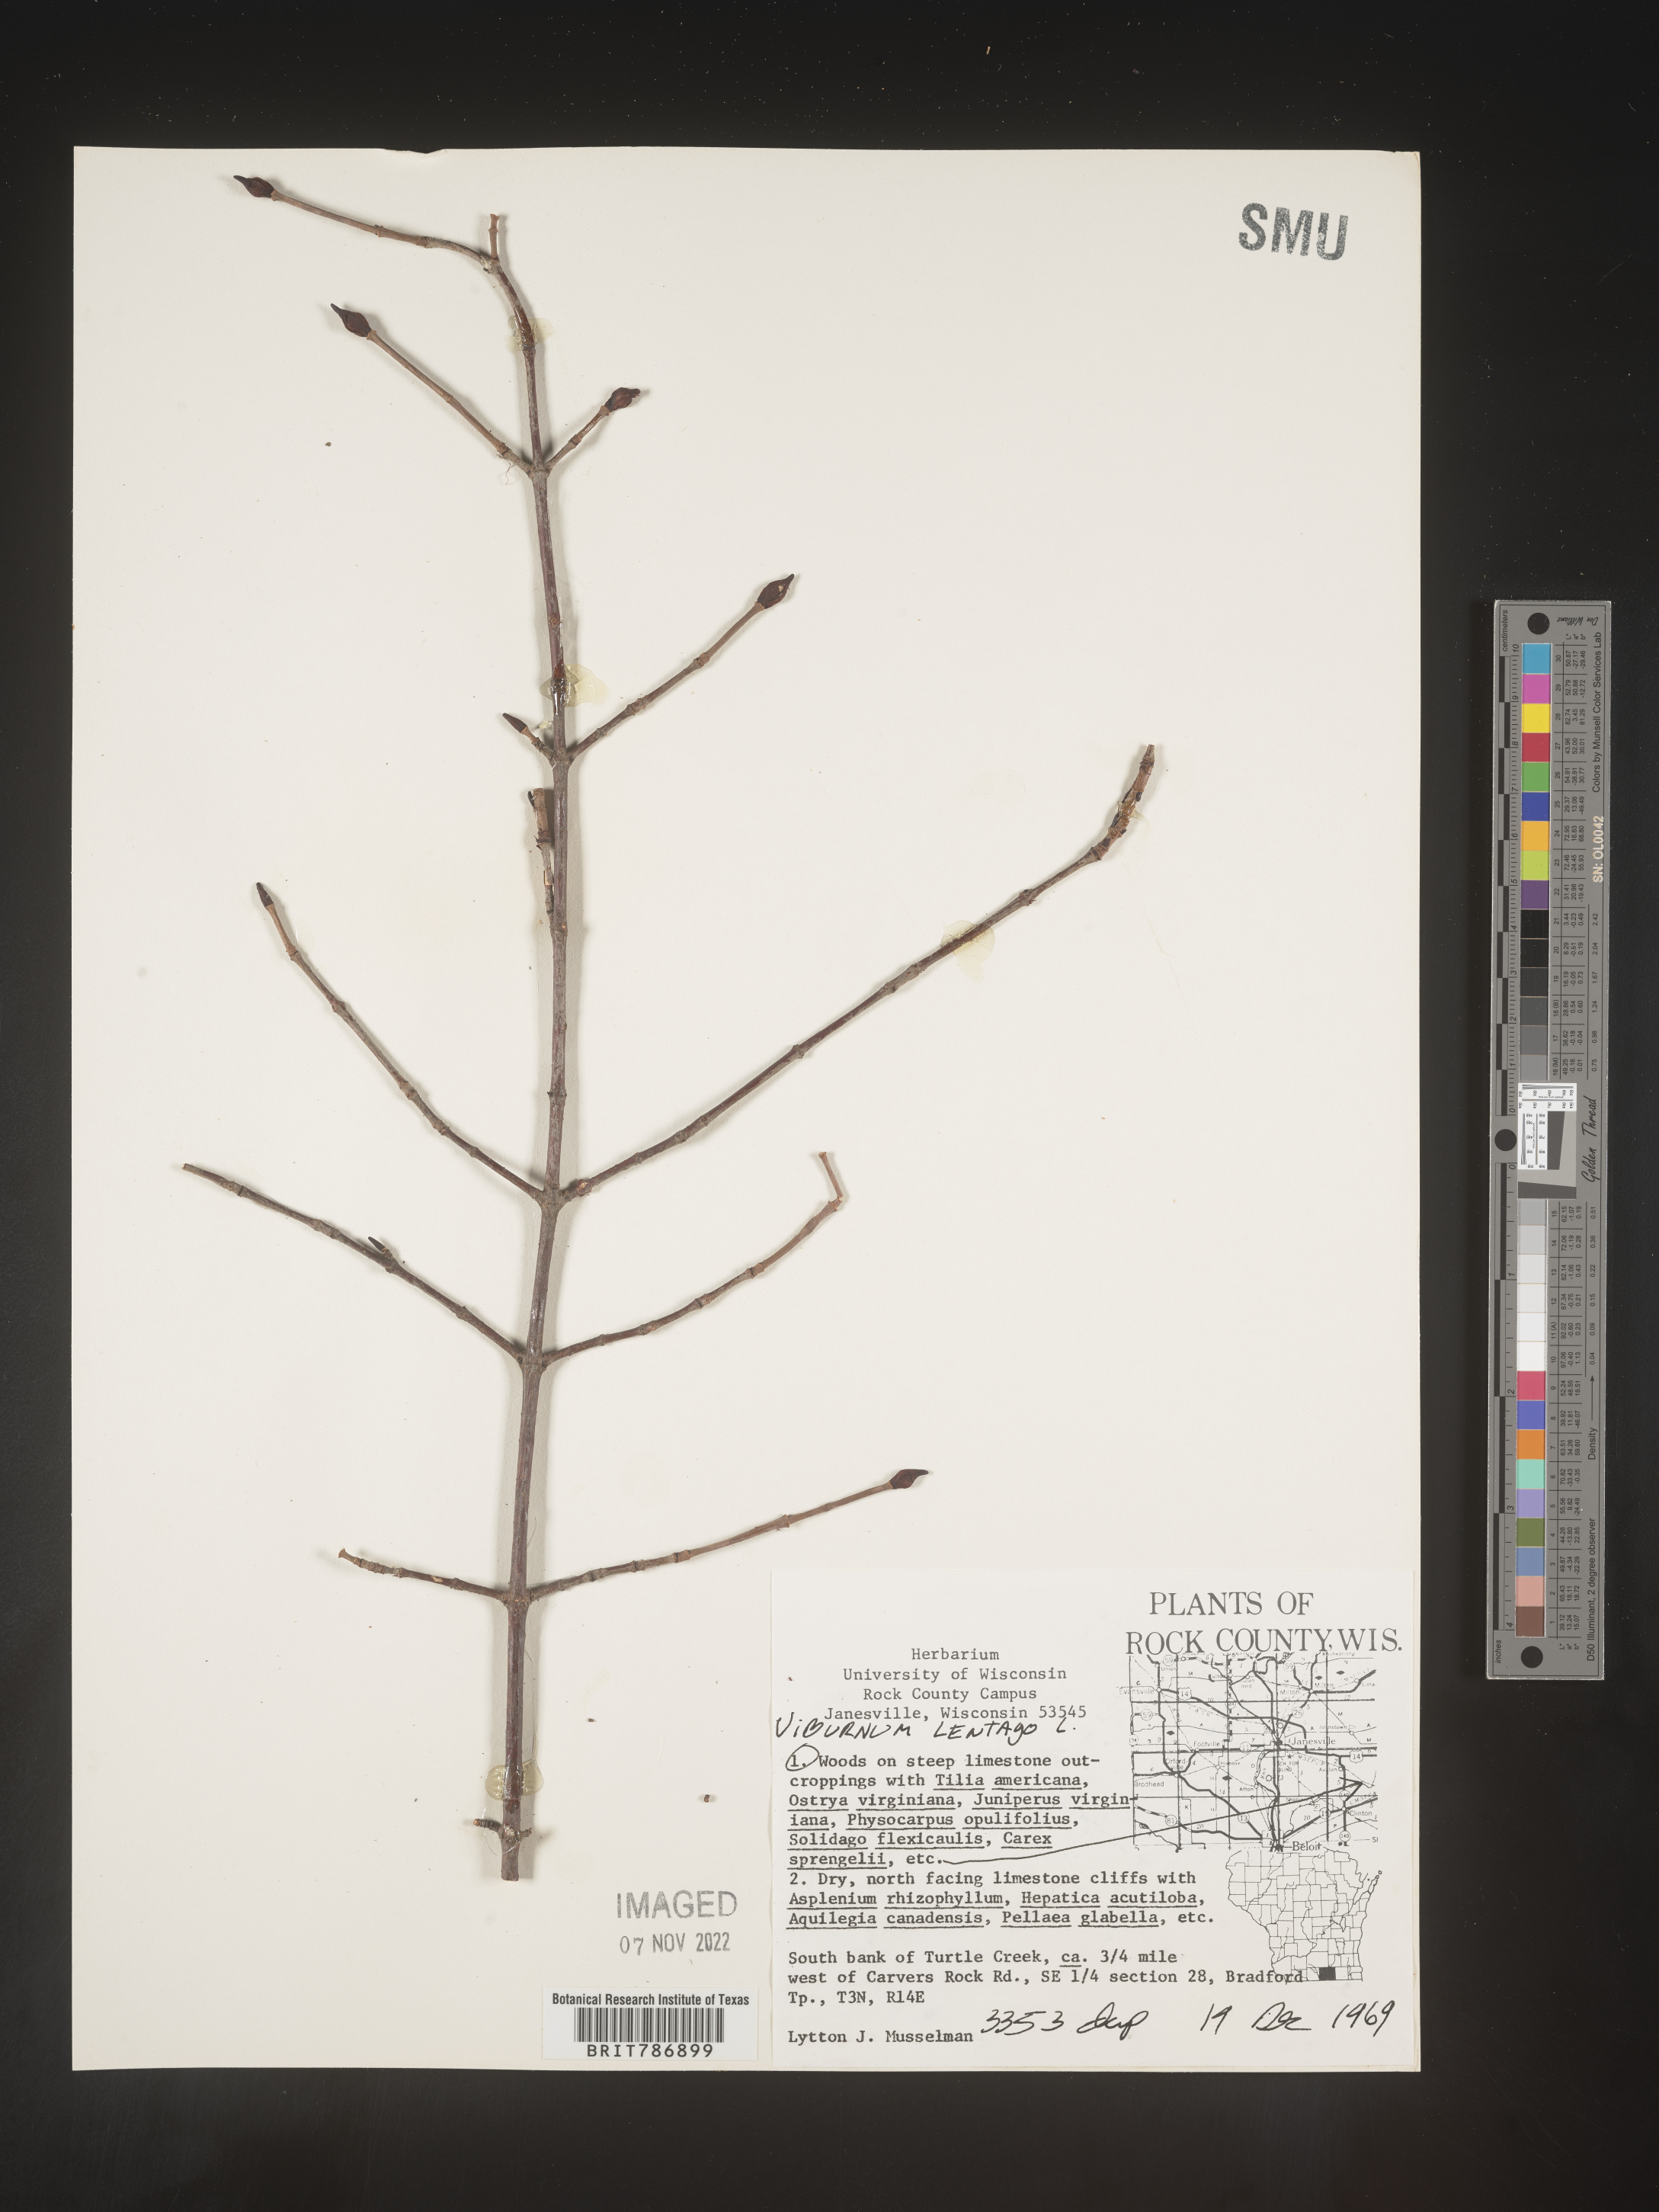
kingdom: Plantae
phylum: Tracheophyta
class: Magnoliopsida
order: Dipsacales
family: Viburnaceae
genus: Viburnum
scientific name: Viburnum lentago
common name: Black haw
